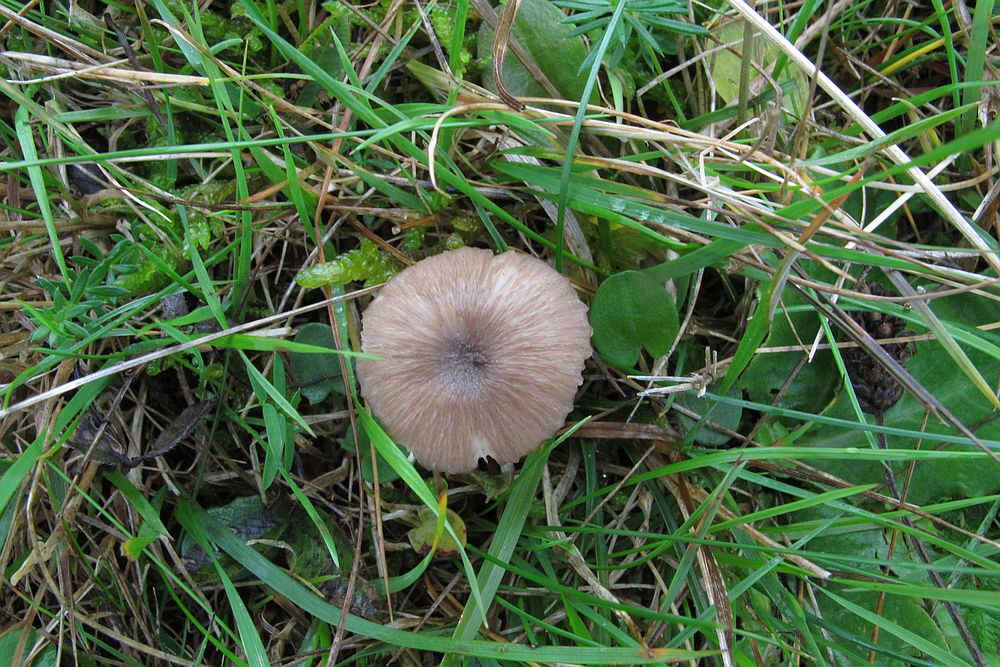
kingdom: Fungi
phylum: Basidiomycota
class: Agaricomycetes
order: Agaricales
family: Entolomataceae
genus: Entoloma
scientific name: Entoloma
